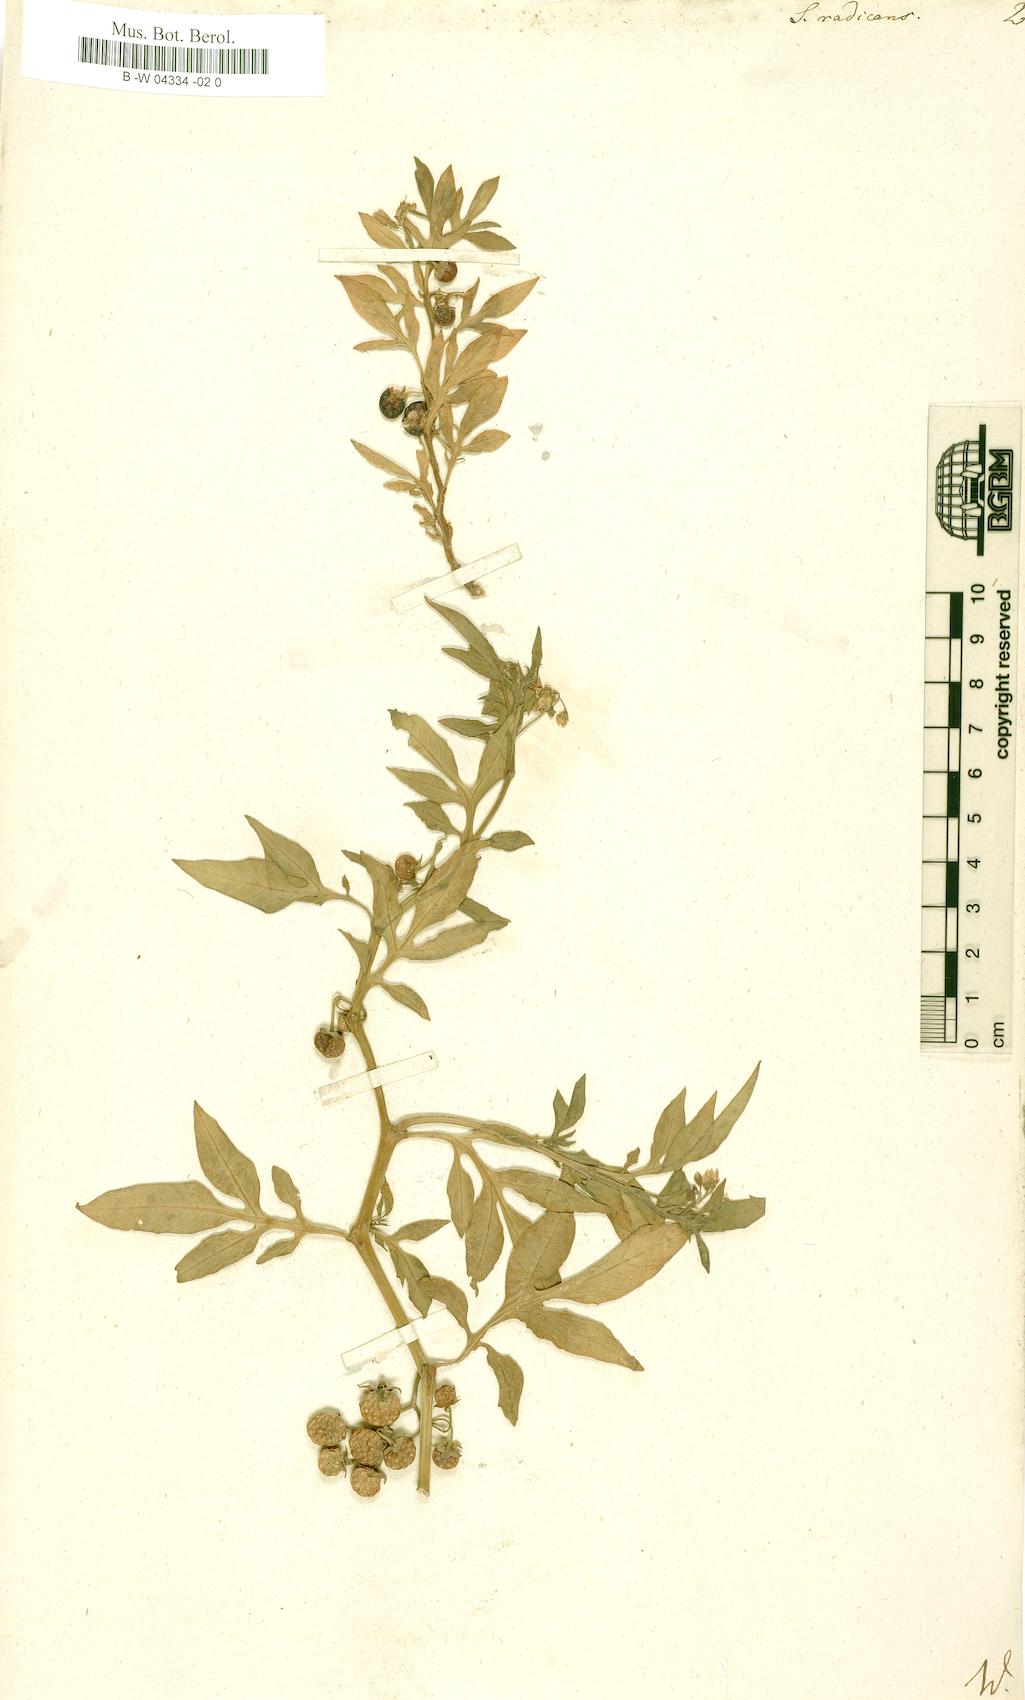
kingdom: Plantae
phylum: Tracheophyta
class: Magnoliopsida
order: Solanales
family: Solanaceae
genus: Solanum
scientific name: Solanum radicans
